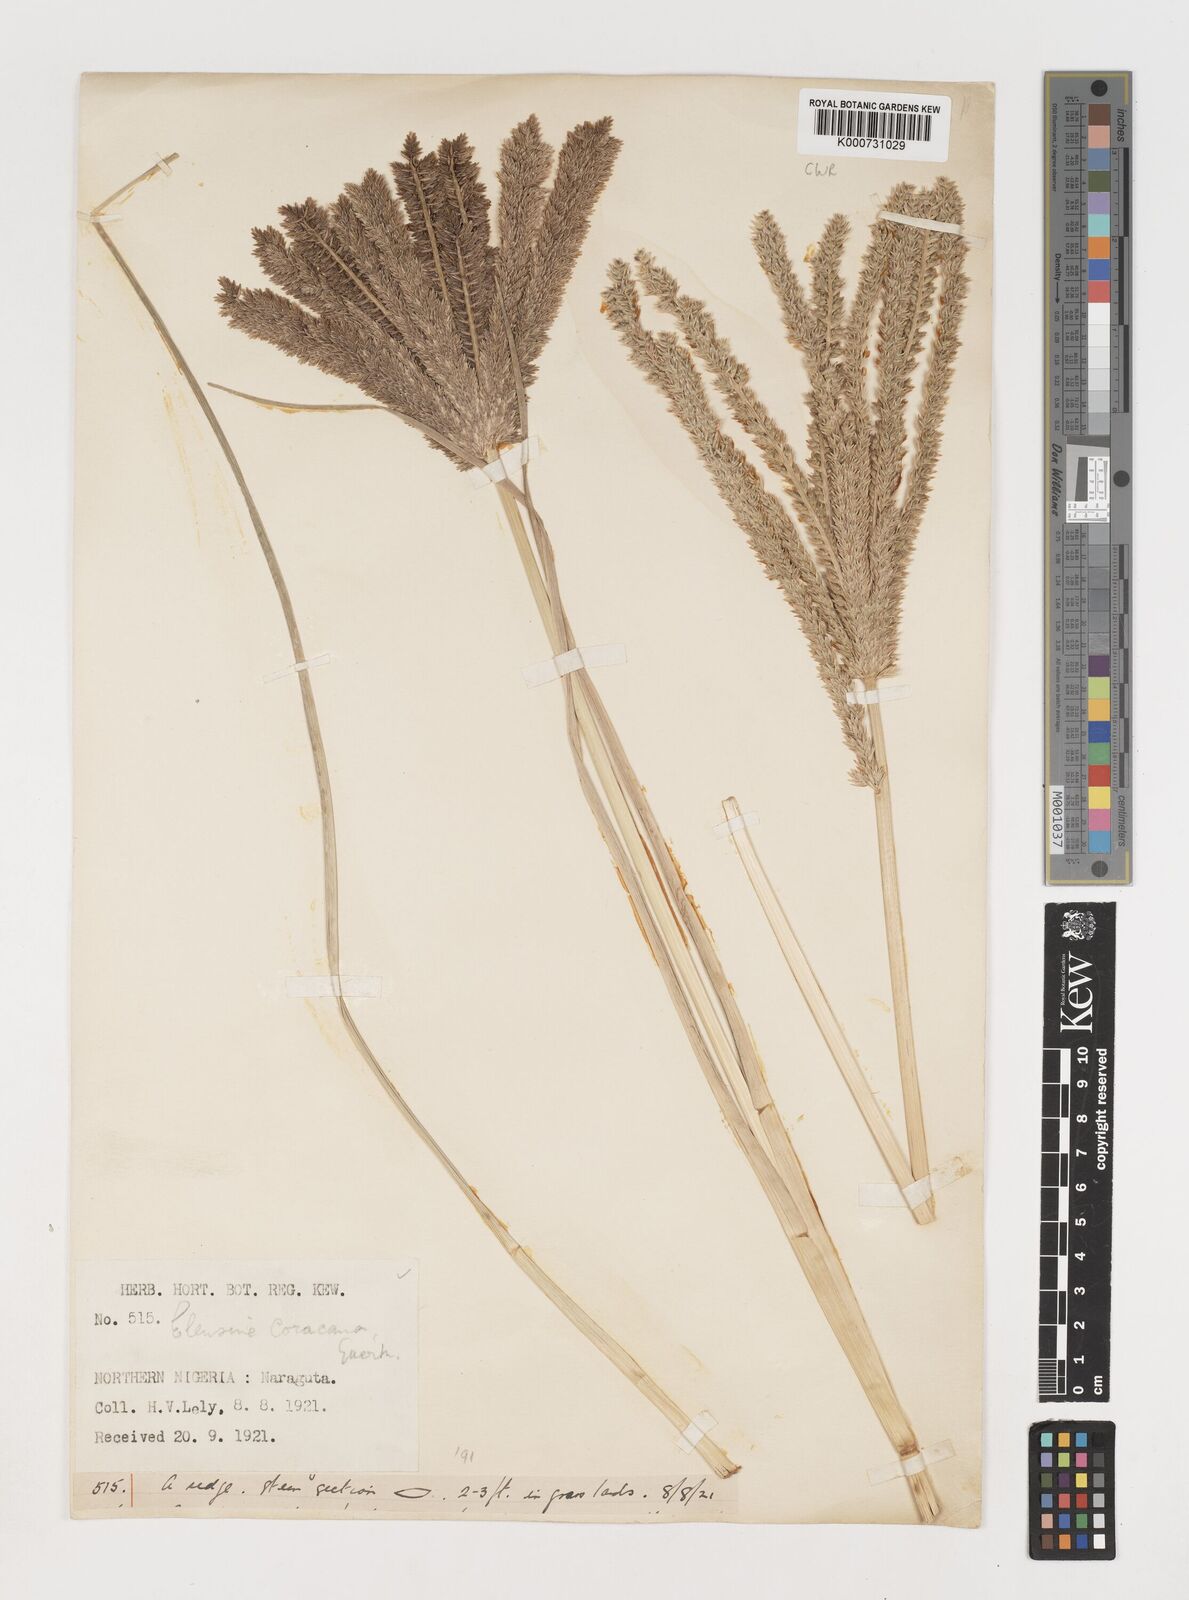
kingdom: Plantae
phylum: Tracheophyta
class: Liliopsida
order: Poales
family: Poaceae
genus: Eleusine
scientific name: Eleusine coracana
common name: Finger millet
